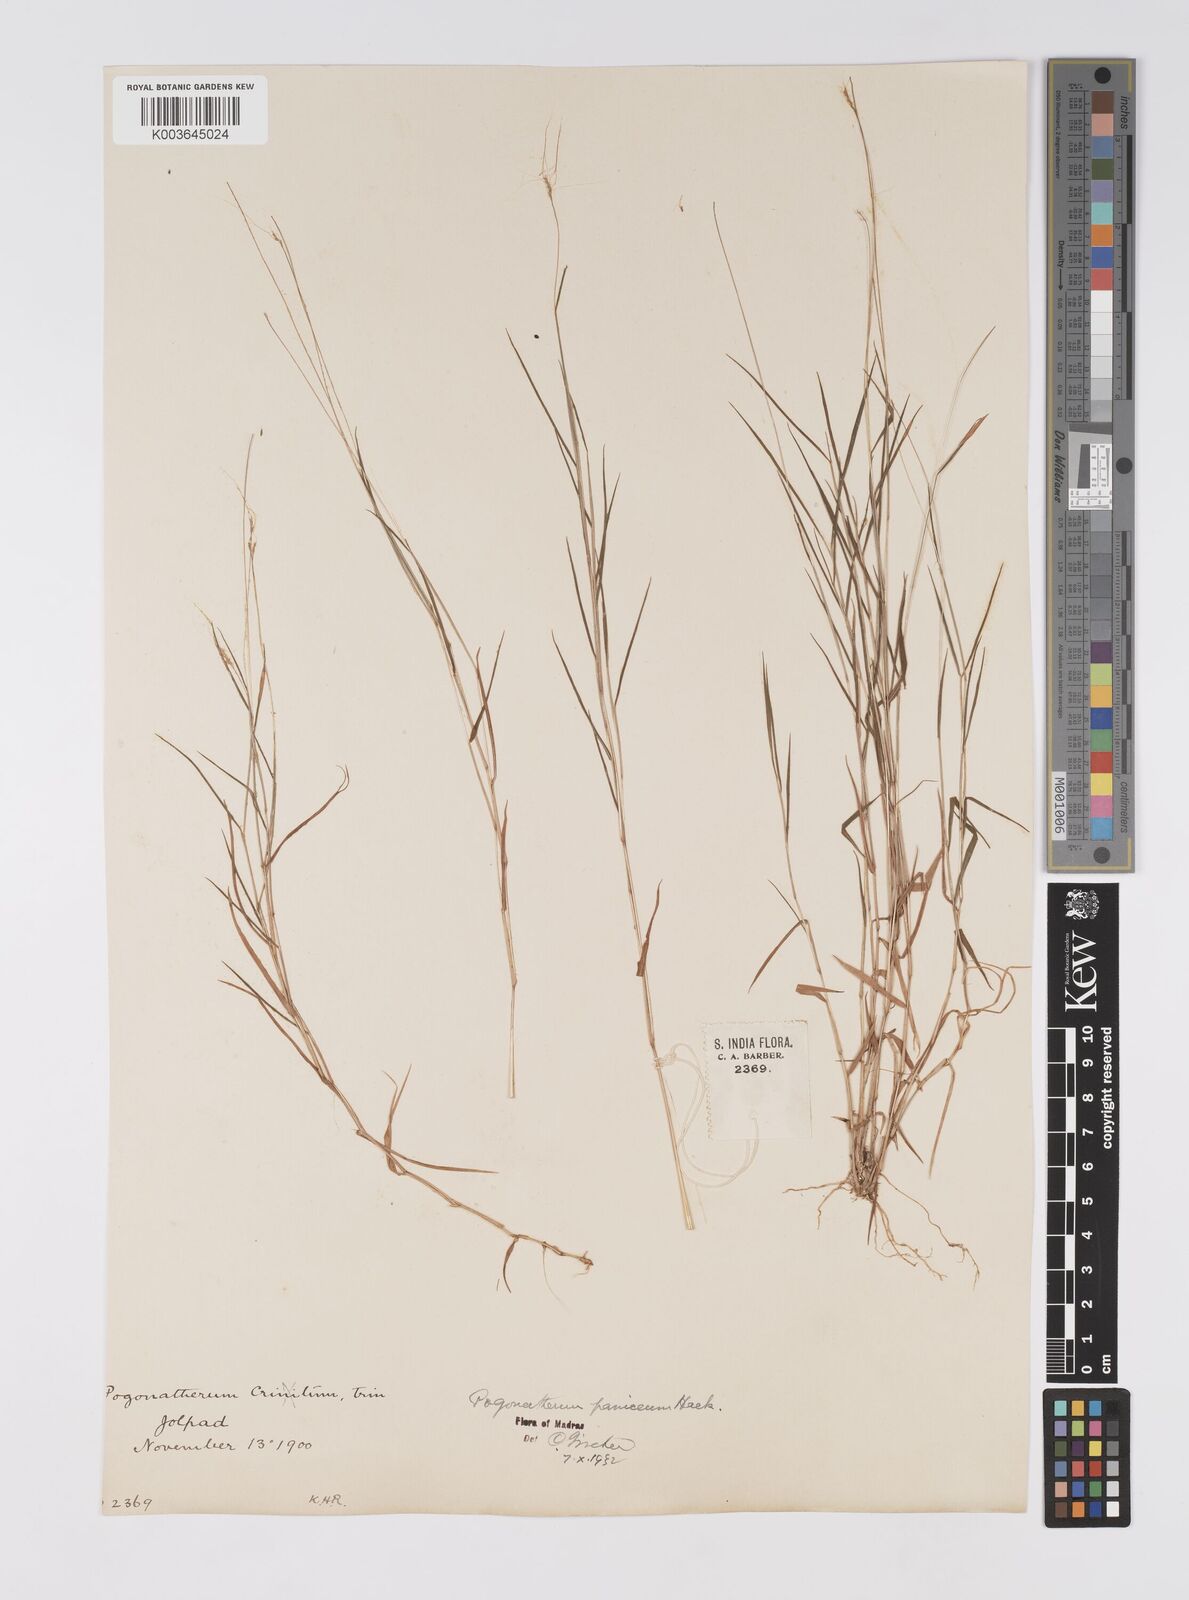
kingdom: Plantae
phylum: Tracheophyta
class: Liliopsida
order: Poales
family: Poaceae
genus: Pogonatherum
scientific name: Pogonatherum crinitum
